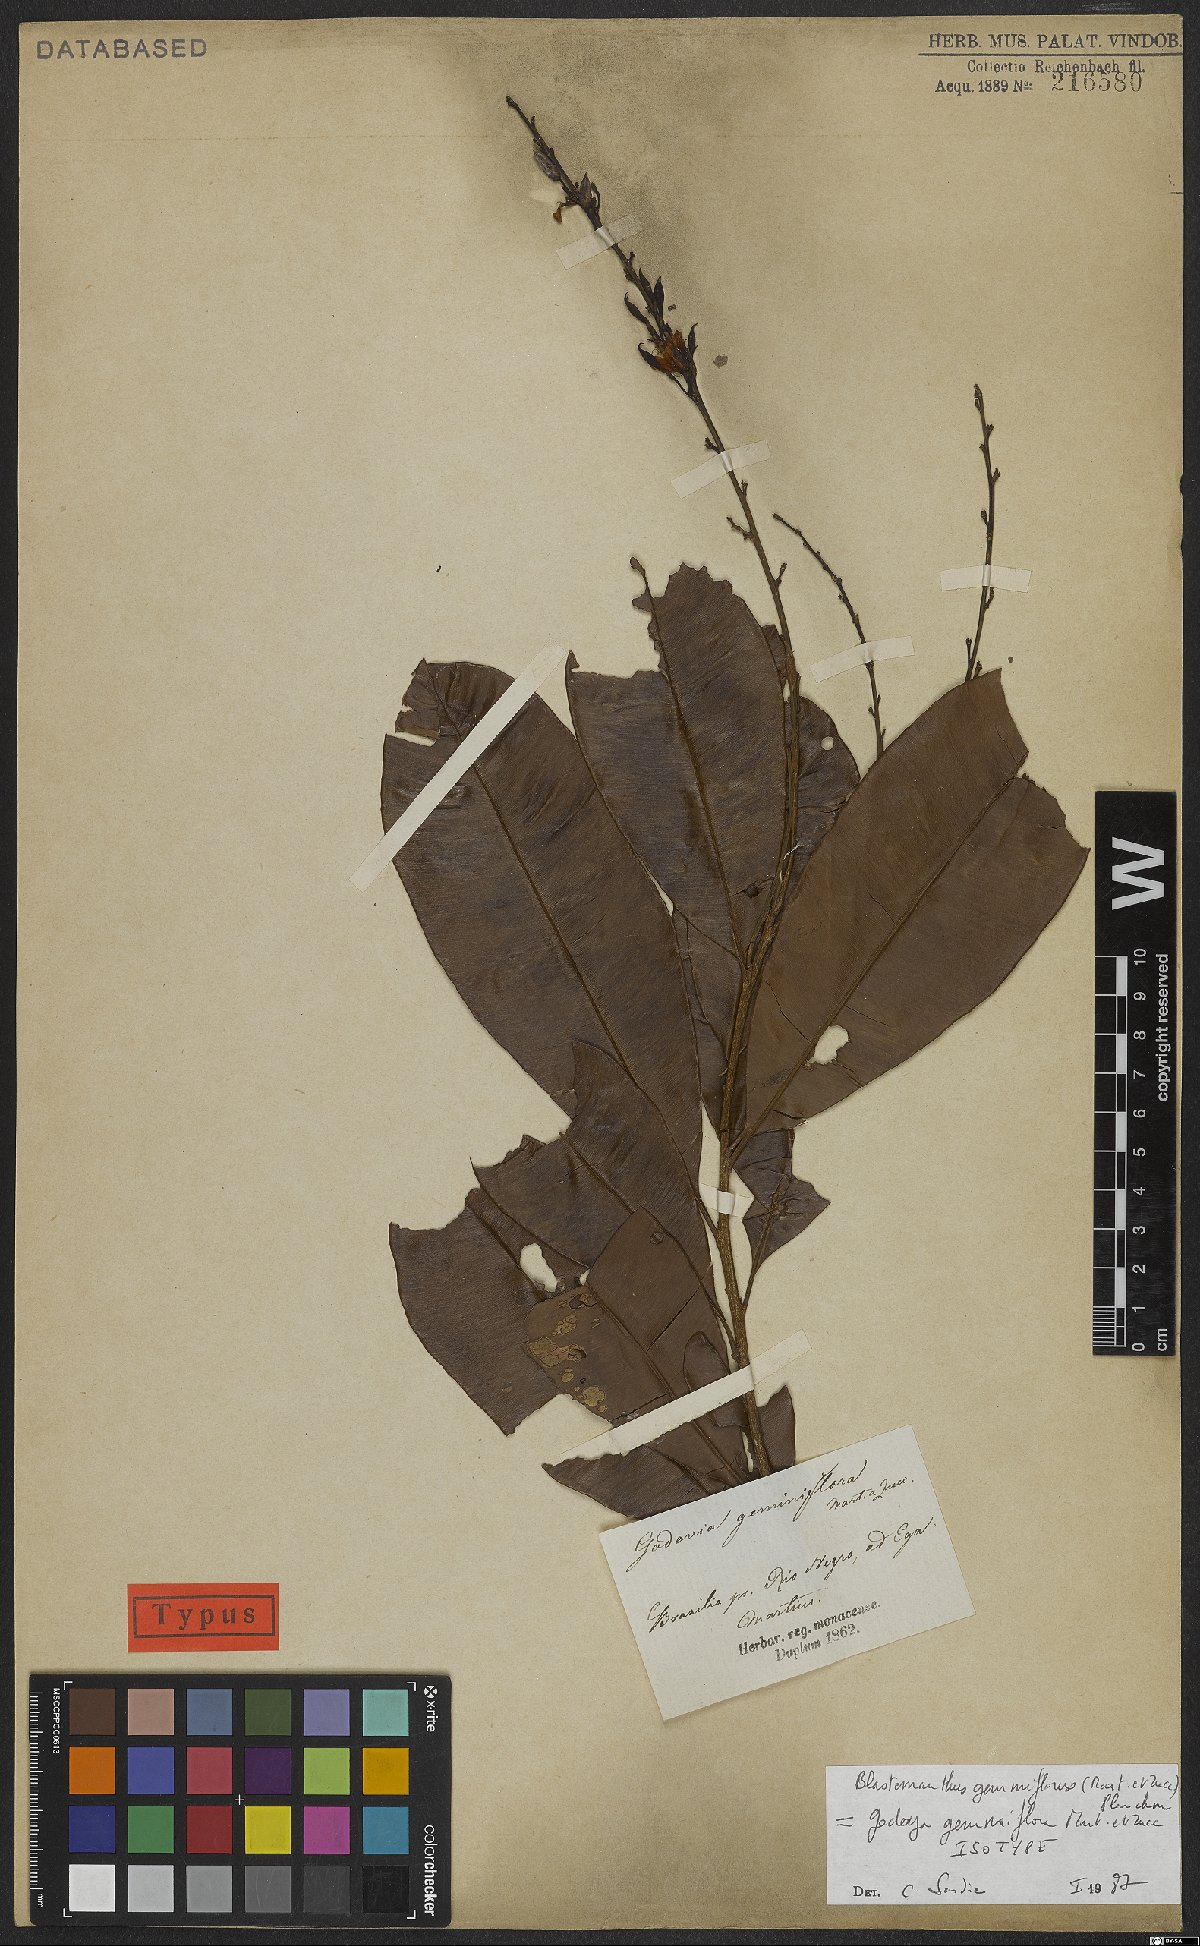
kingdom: Plantae
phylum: Tracheophyta
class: Magnoliopsida
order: Malpighiales
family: Ochnaceae
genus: Blastemanthus
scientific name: Blastemanthus gemmiflorus
